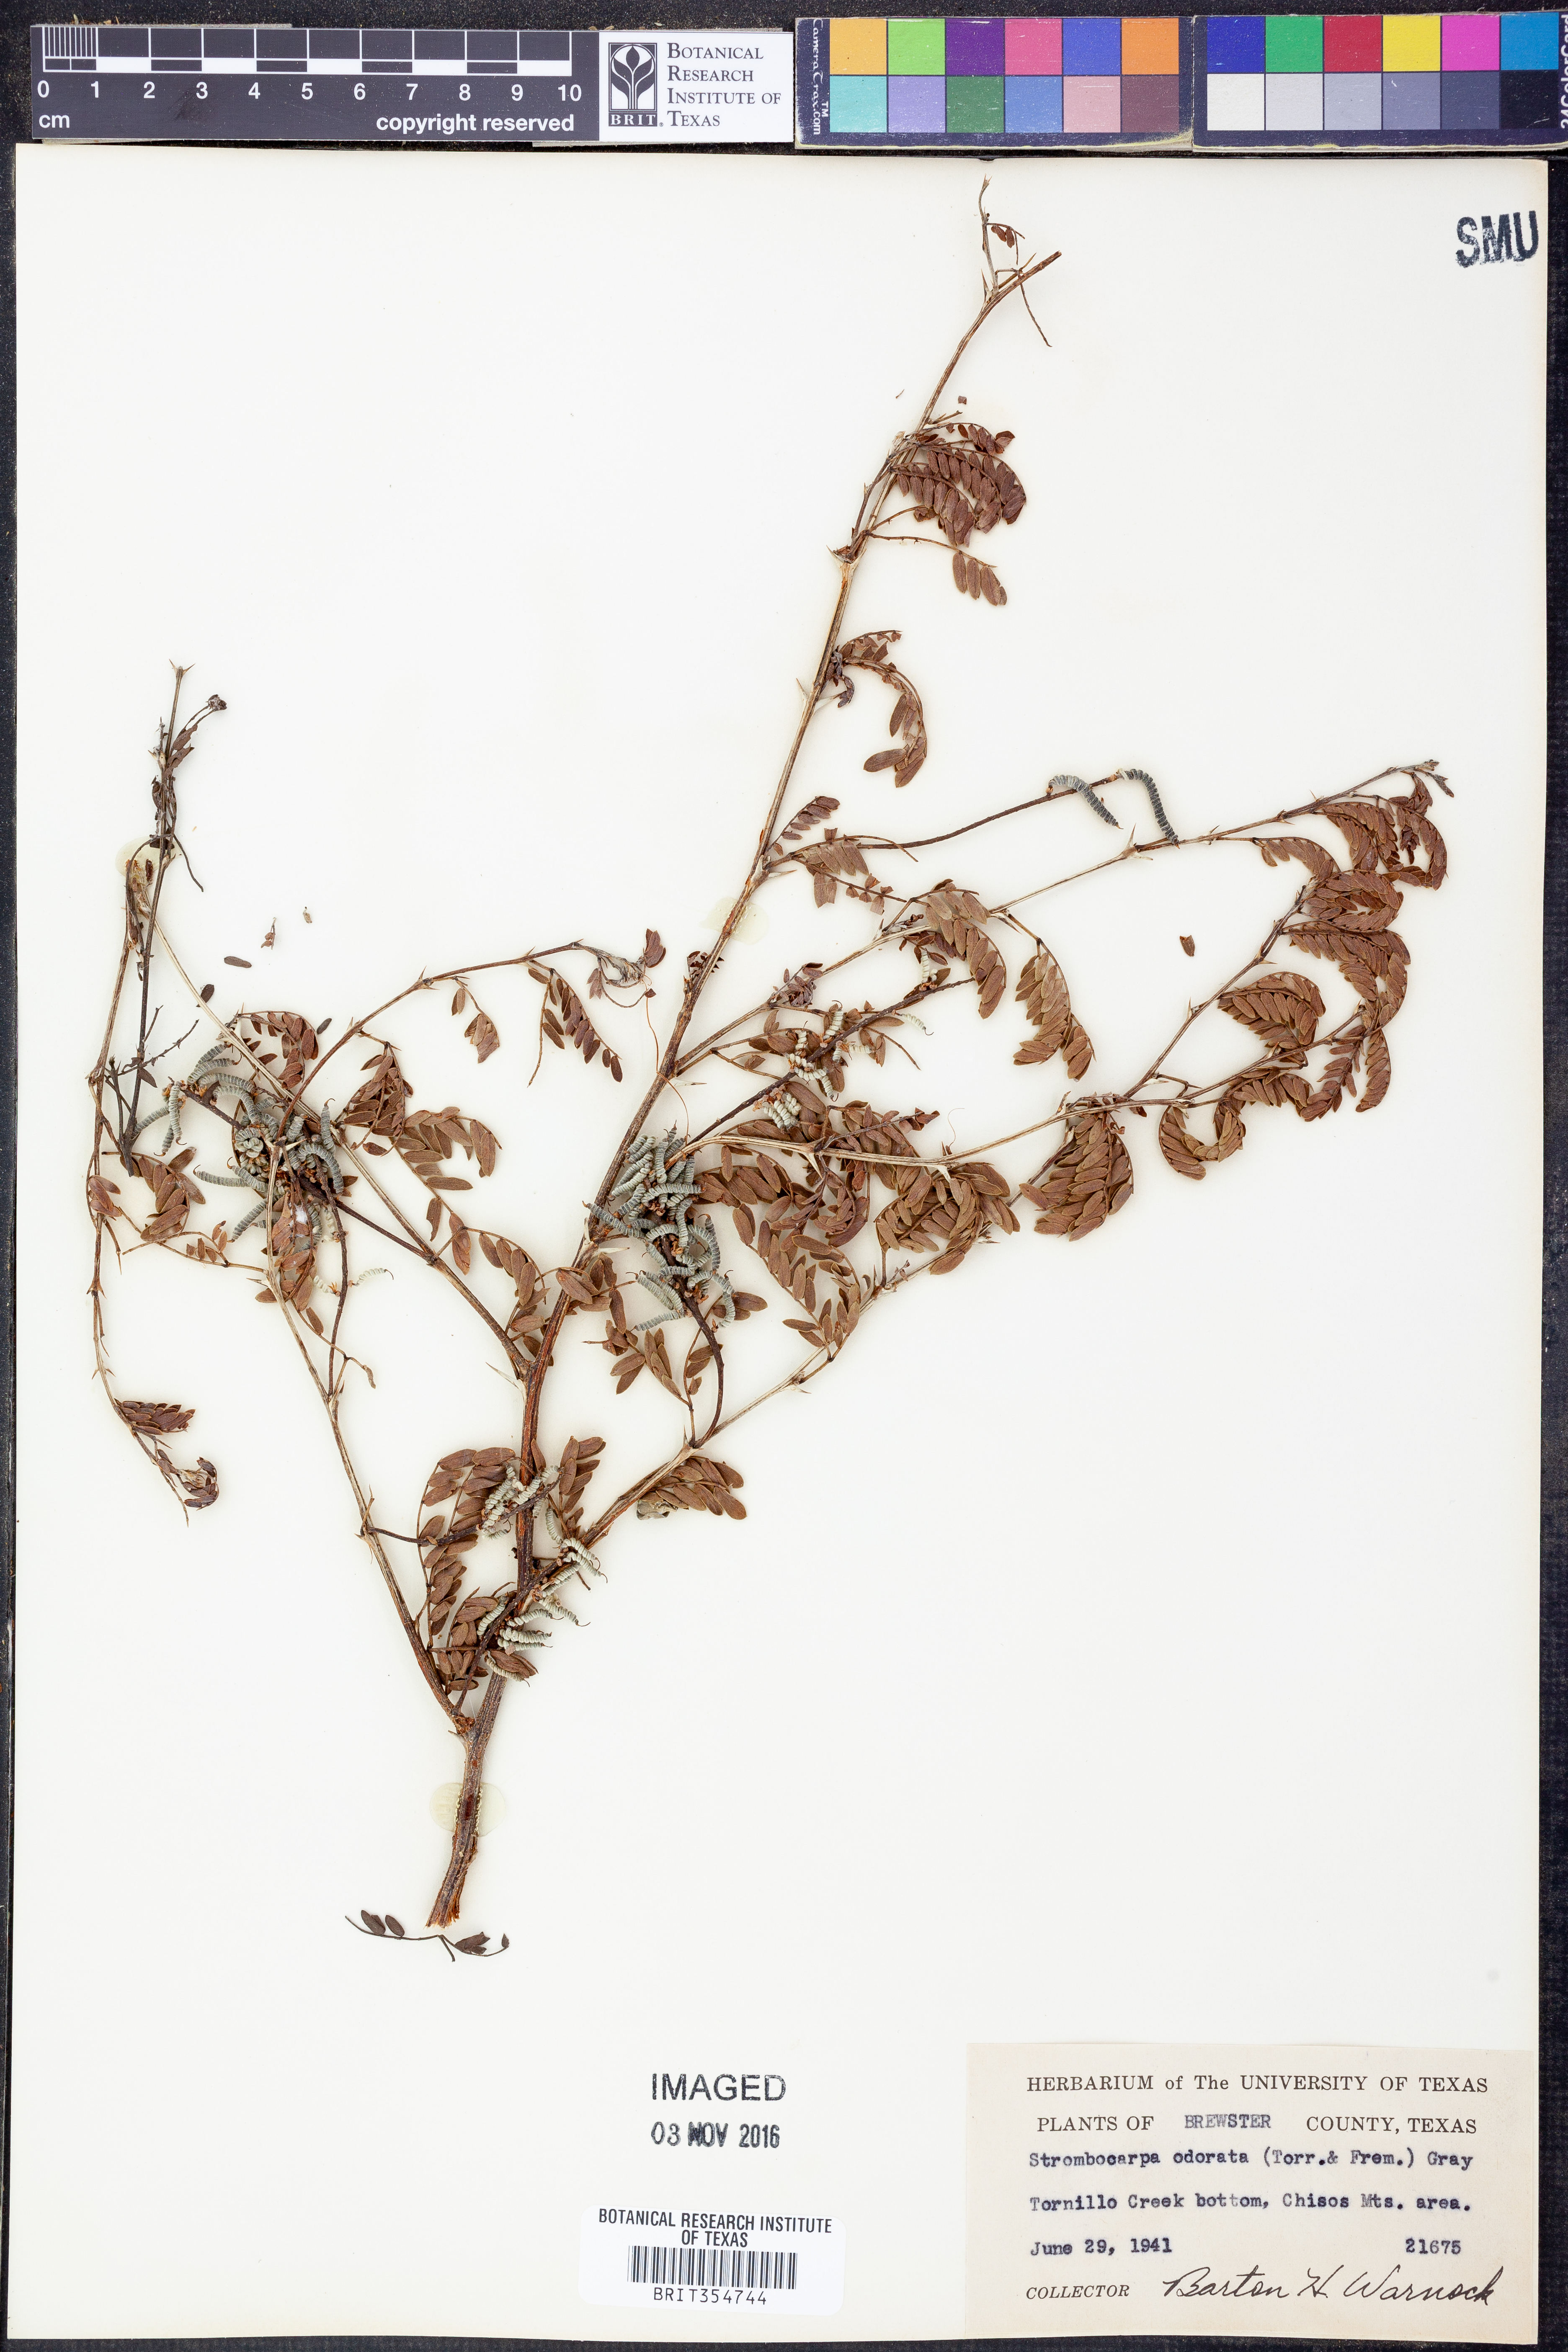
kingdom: Plantae
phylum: Tracheophyta
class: Magnoliopsida
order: Fabales
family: Fabaceae
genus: Prosopis
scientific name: Prosopis pubescens
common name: Screw-bean
